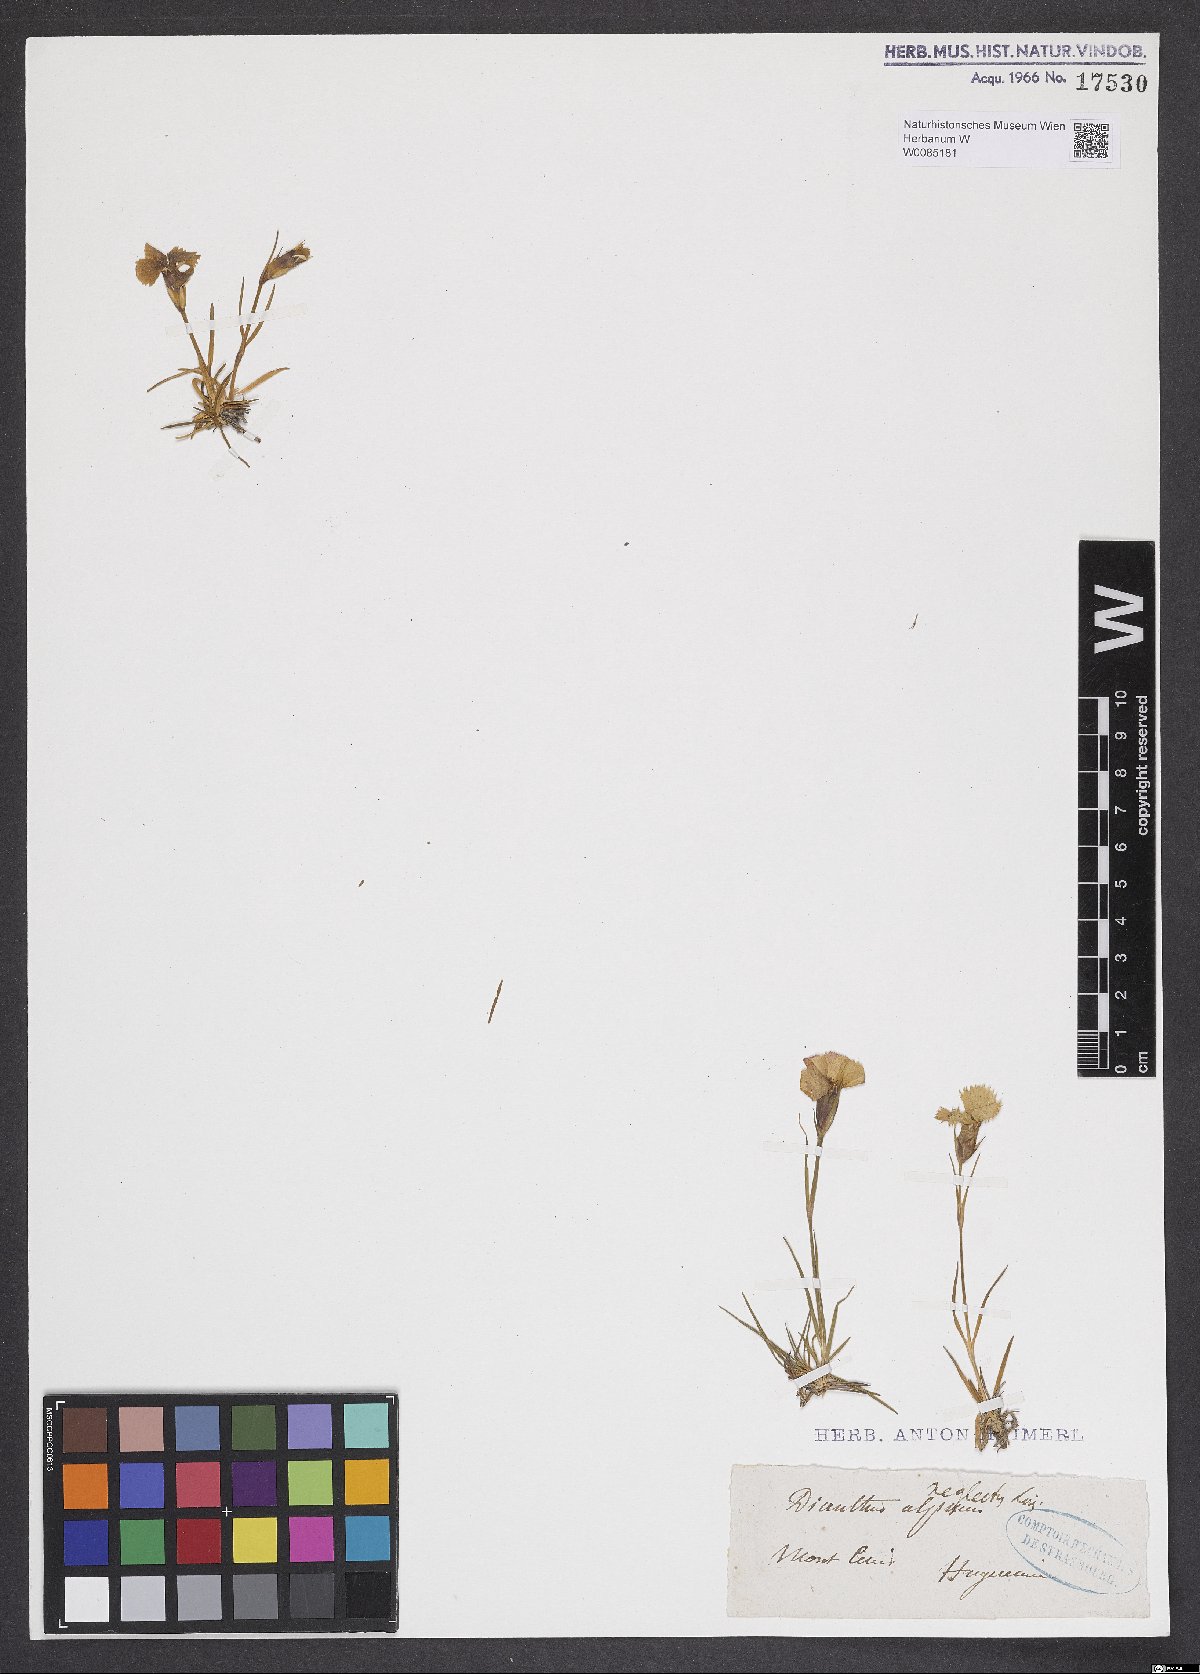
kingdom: Plantae
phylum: Tracheophyta
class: Magnoliopsida
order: Caryophyllales
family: Caryophyllaceae
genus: Dianthus
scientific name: Dianthus pavonius
